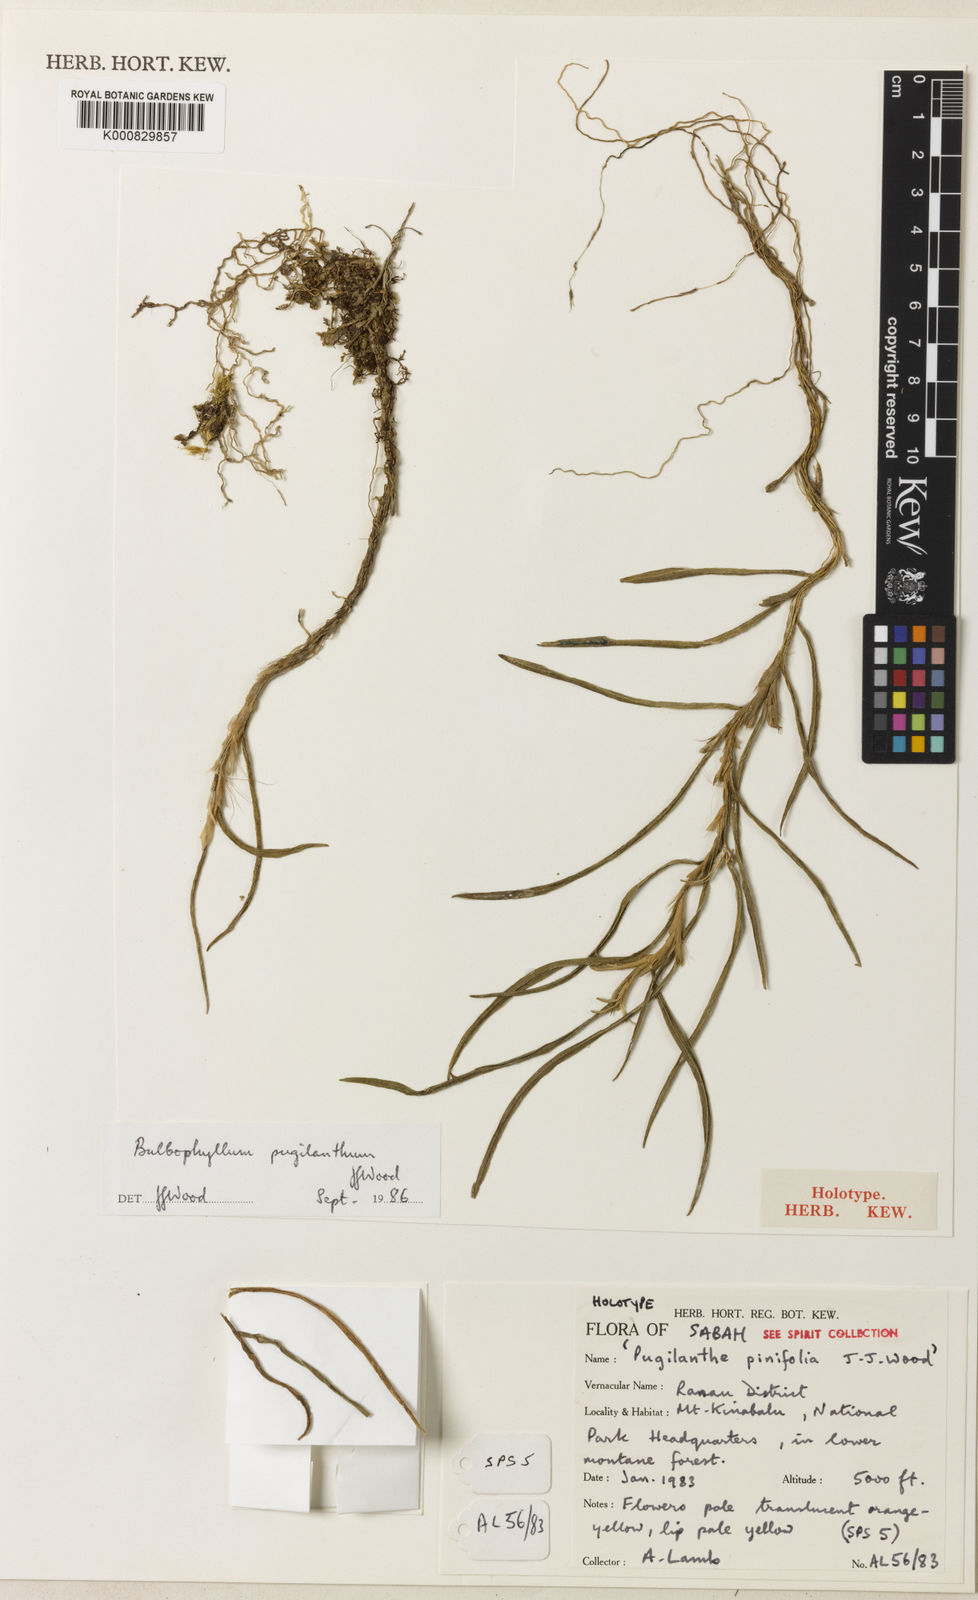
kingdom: Plantae
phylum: Tracheophyta
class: Liliopsida
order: Asparagales
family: Orchidaceae
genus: Bulbophyllum
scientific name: Bulbophyllum pugilanthum
